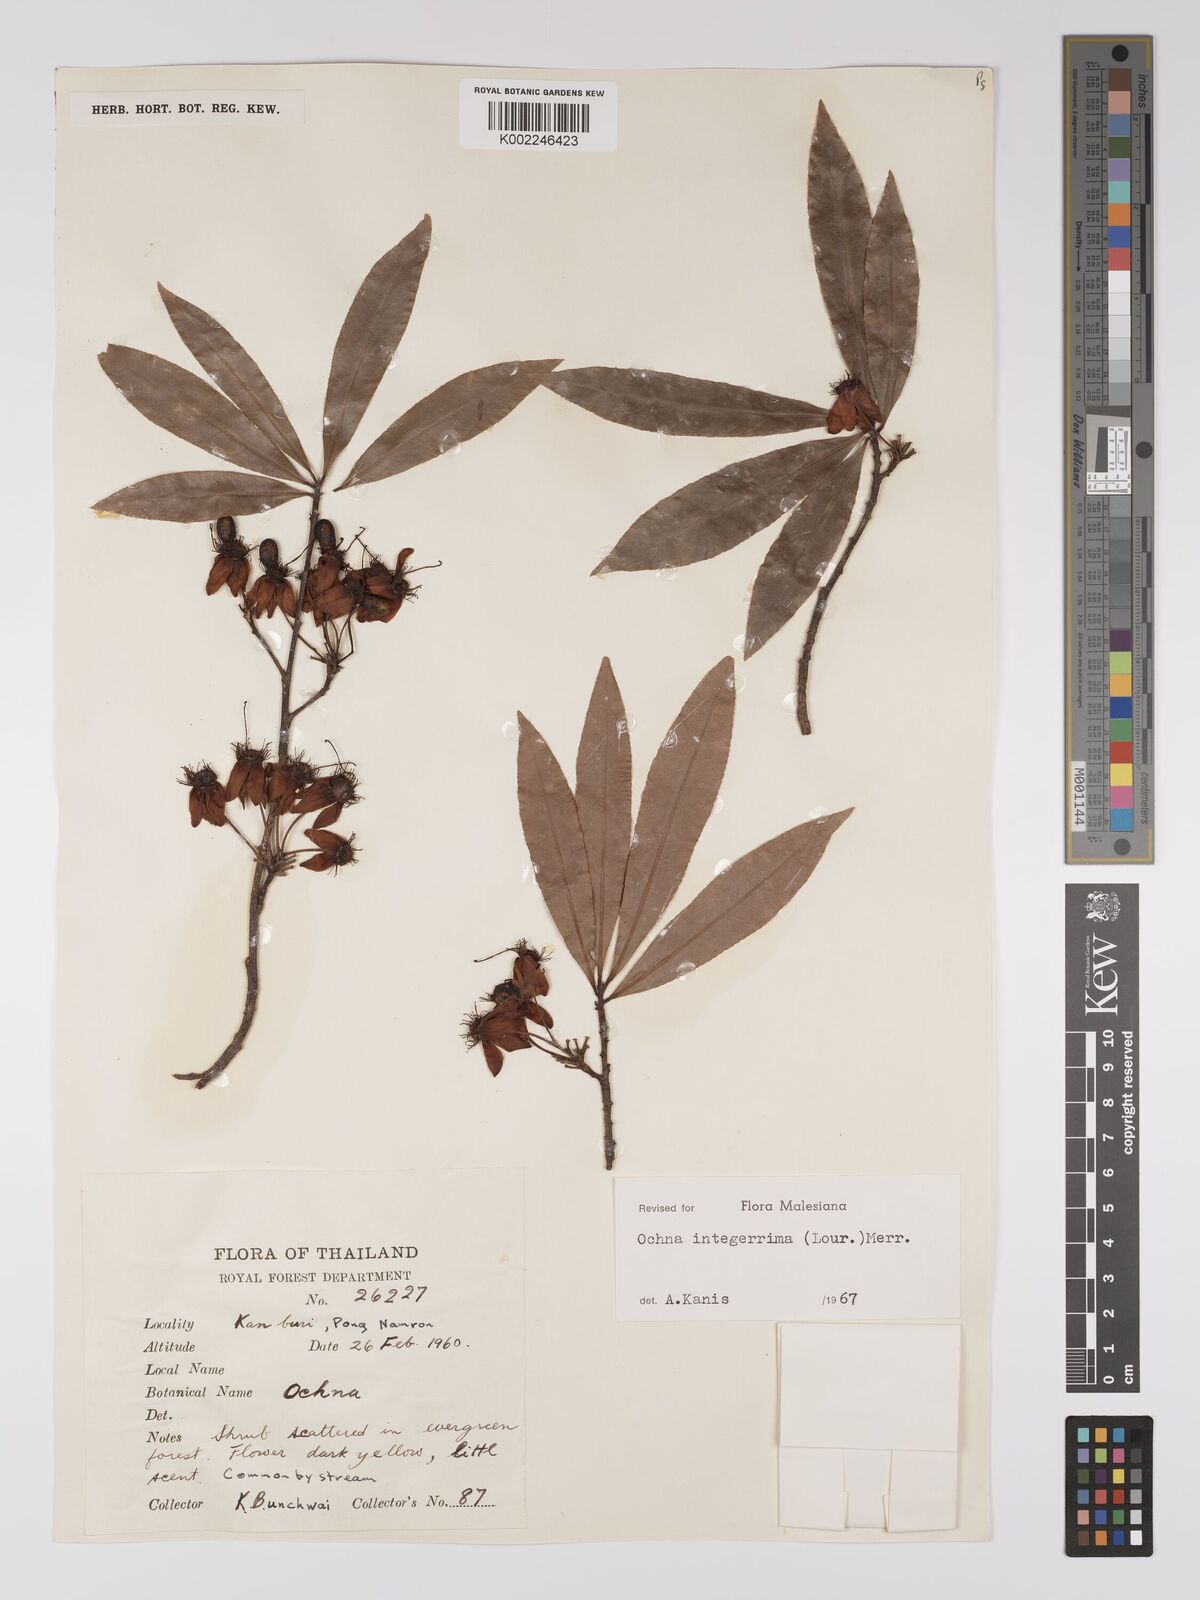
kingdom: Plantae
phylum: Tracheophyta
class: Magnoliopsida
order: Malpighiales
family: Ochnaceae
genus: Ochna
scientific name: Ochna integerrima
